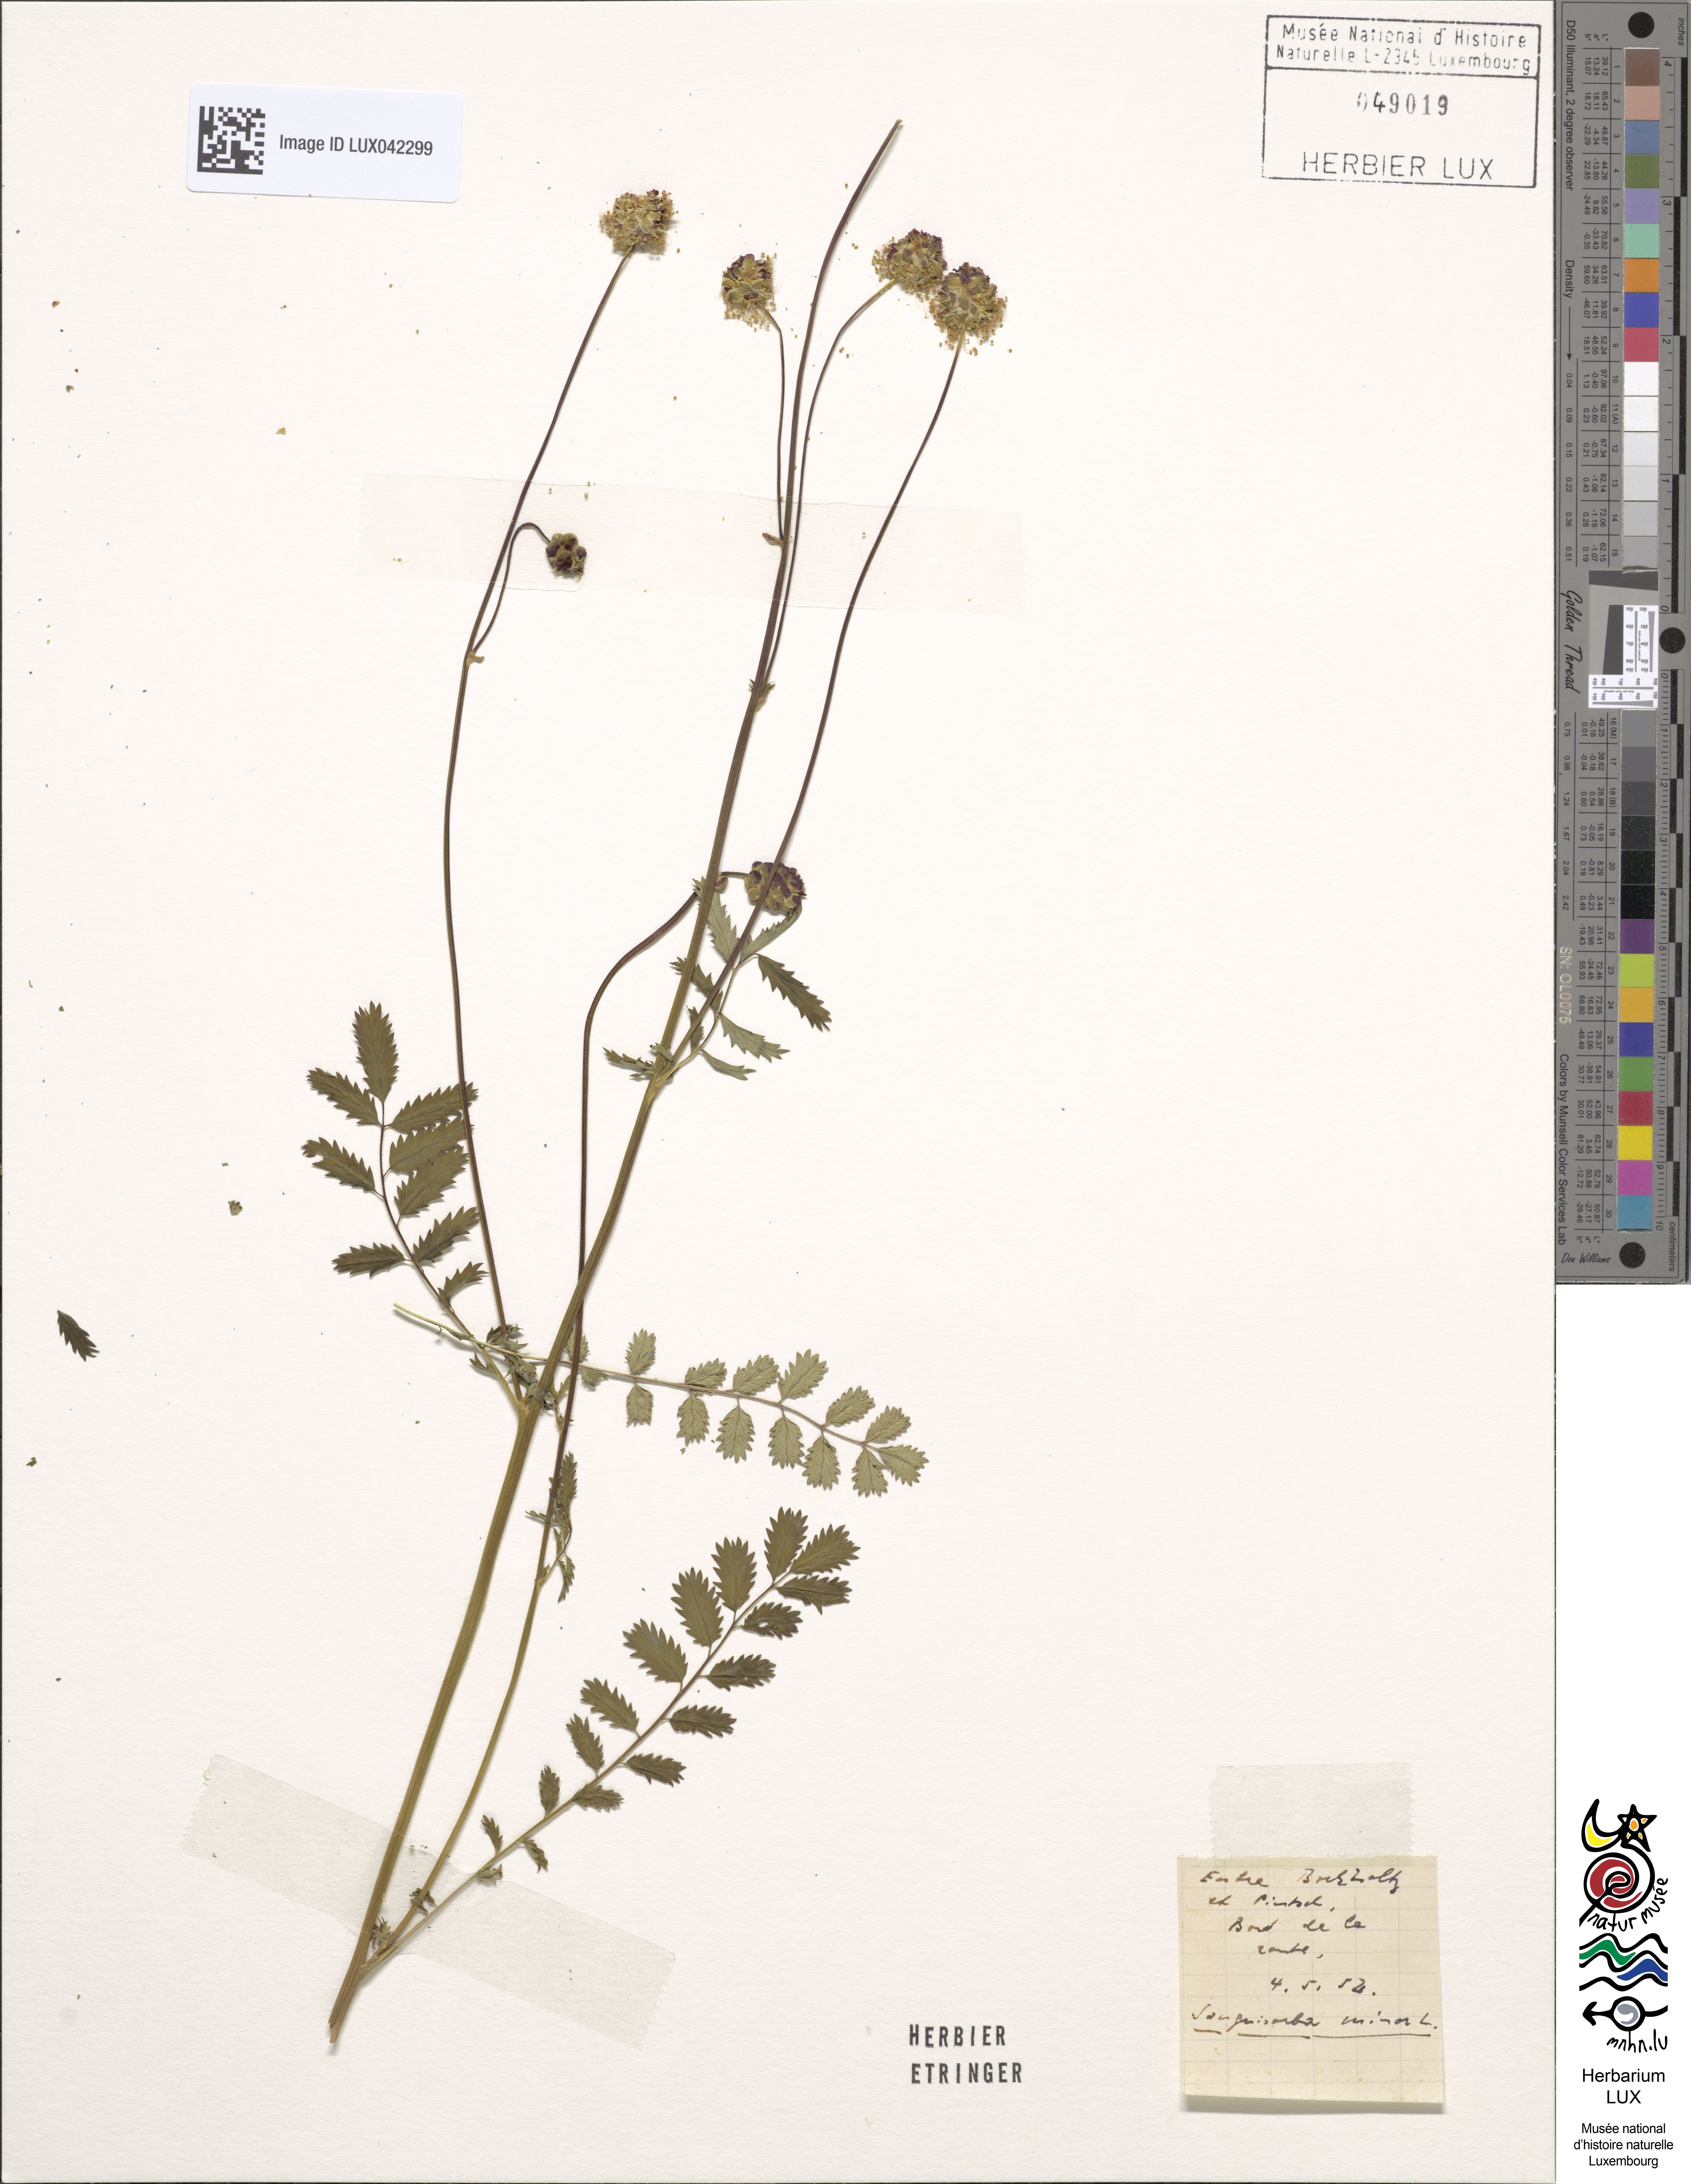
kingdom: Plantae
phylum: Tracheophyta
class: Magnoliopsida
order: Rosales
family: Rosaceae
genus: Poterium
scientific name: Poterium sanguisorba
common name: Salad burnet
